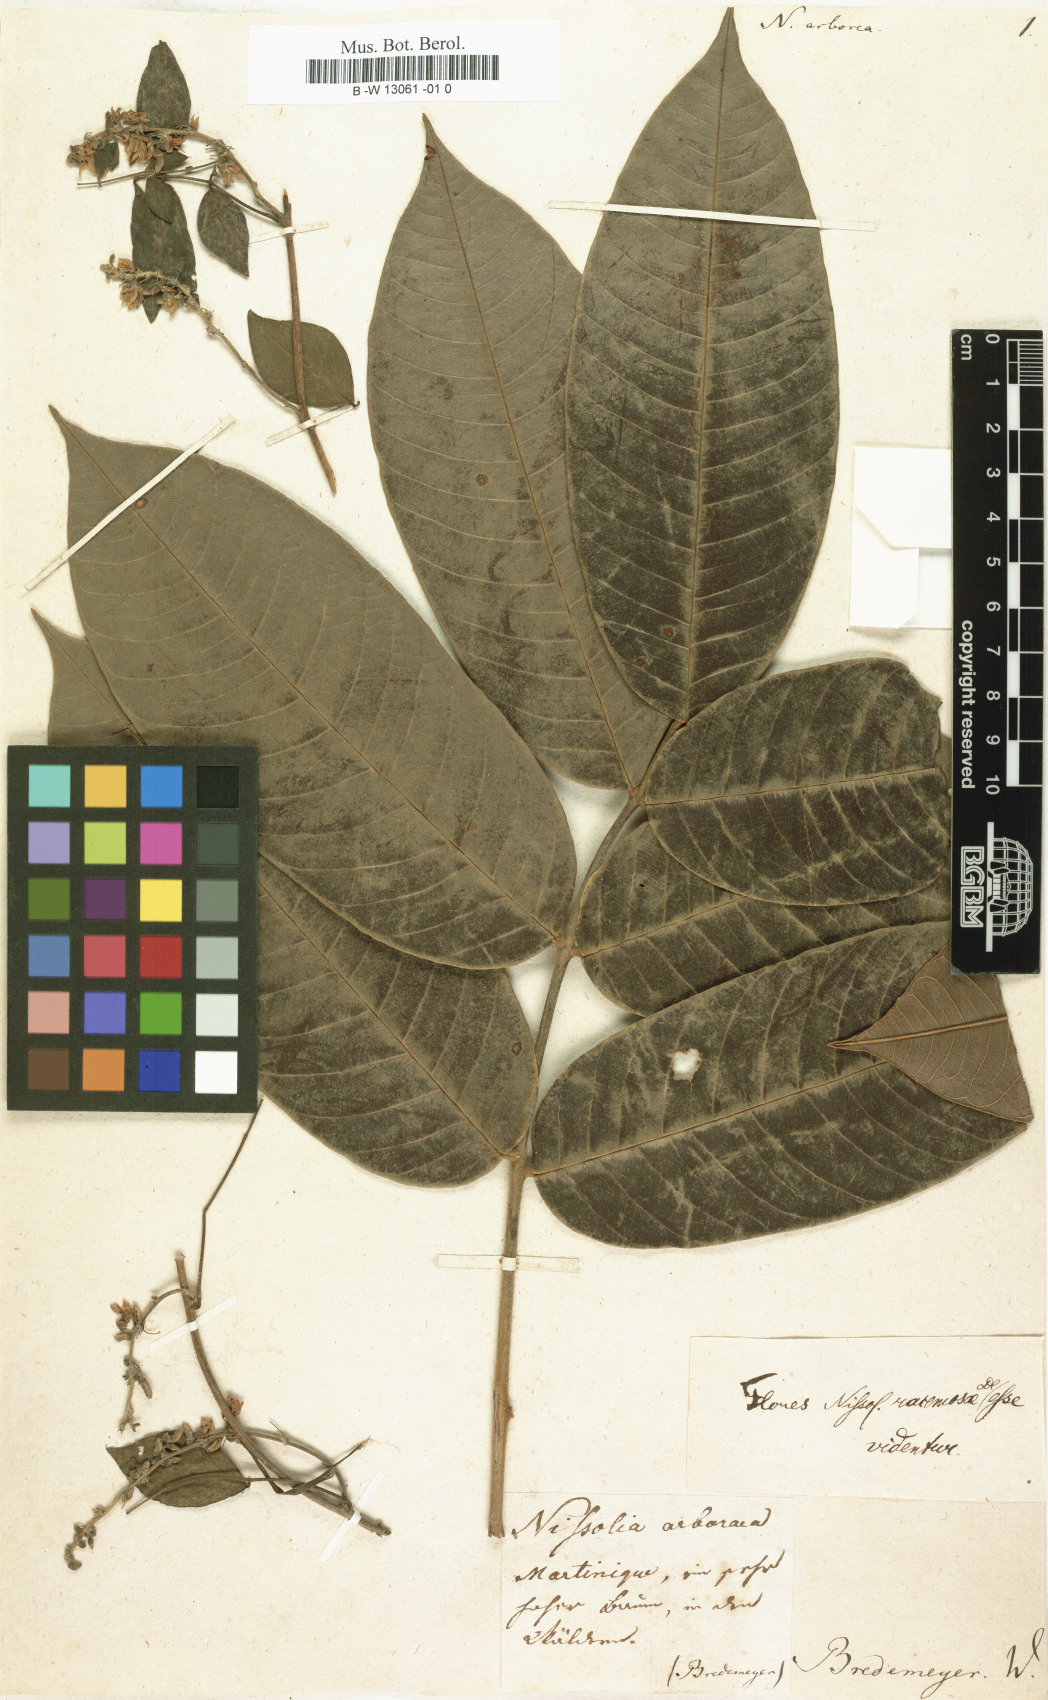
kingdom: Plantae
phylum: Tracheophyta
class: Magnoliopsida
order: Fabales
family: Fabaceae
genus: Machaerium
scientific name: Machaerium arboreum
